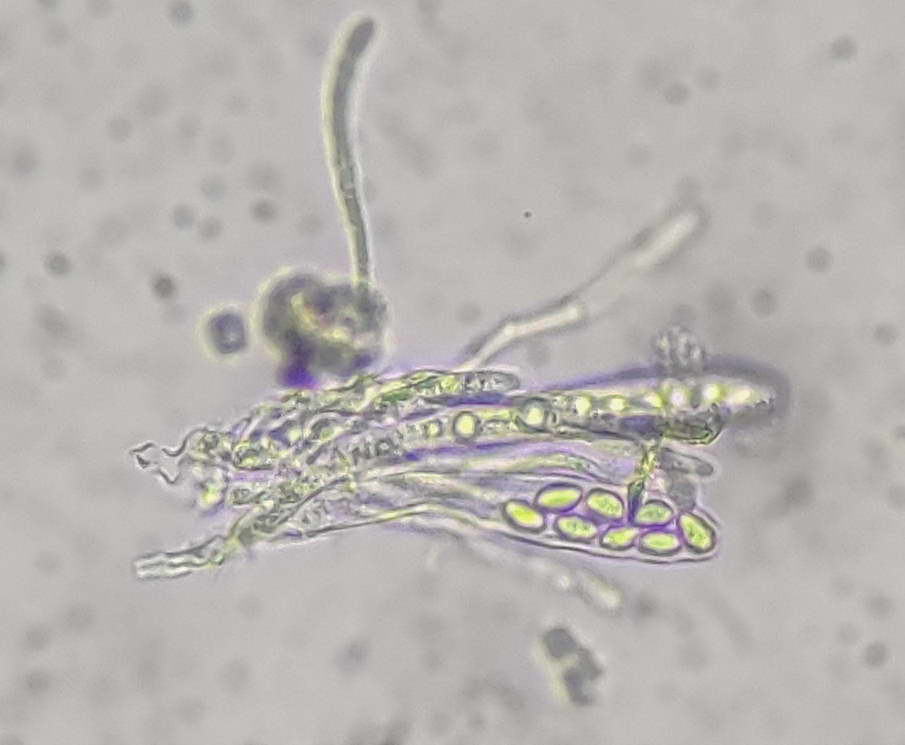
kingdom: Fungi
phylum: Ascomycota
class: Leotiomycetes
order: Helotiales
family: Cenangiaceae
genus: Trochila
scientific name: Trochila craterium
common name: vedbend-lågskive
